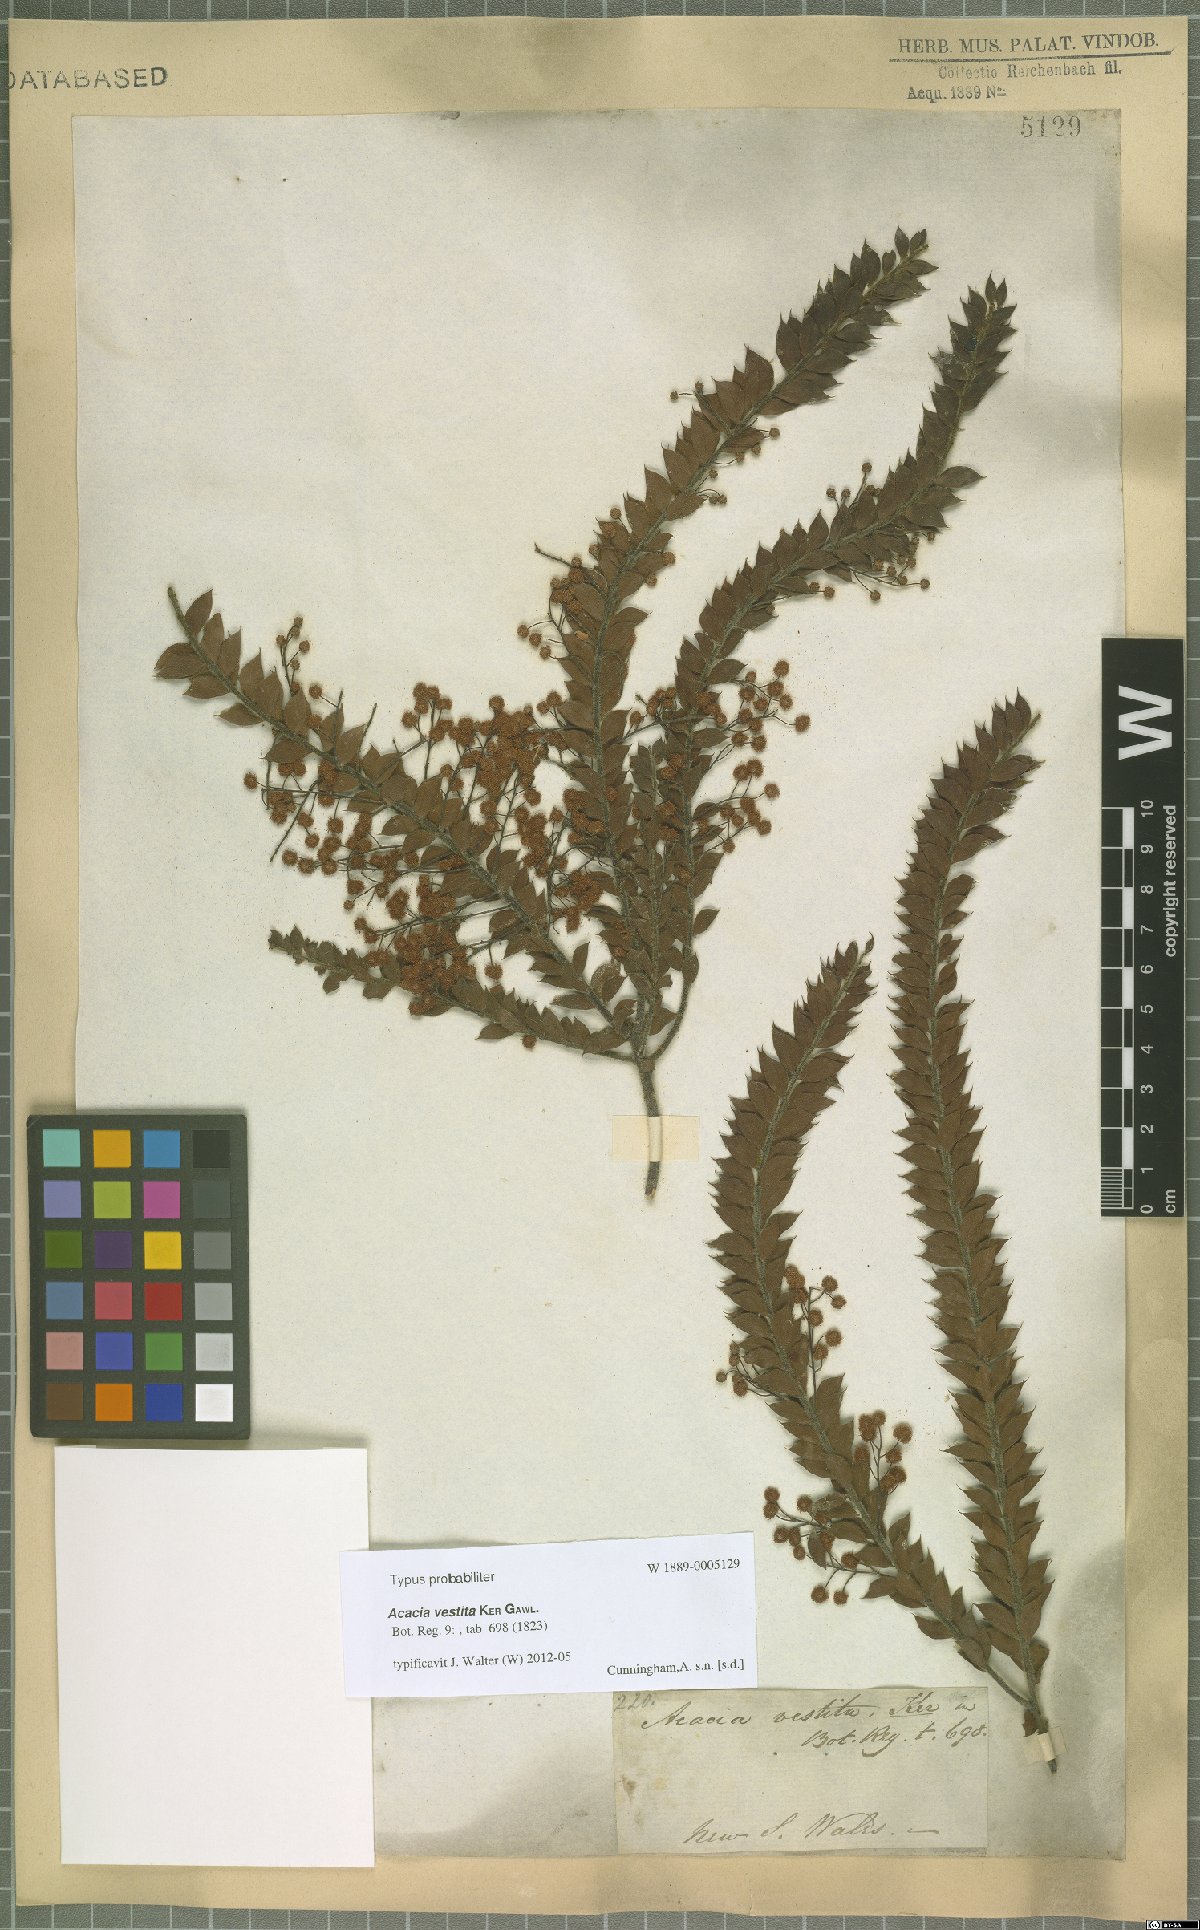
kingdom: Plantae
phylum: Tracheophyta
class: Magnoliopsida
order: Fabales
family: Fabaceae
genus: Acacia
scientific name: Acacia vestita
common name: Hairy wattle
